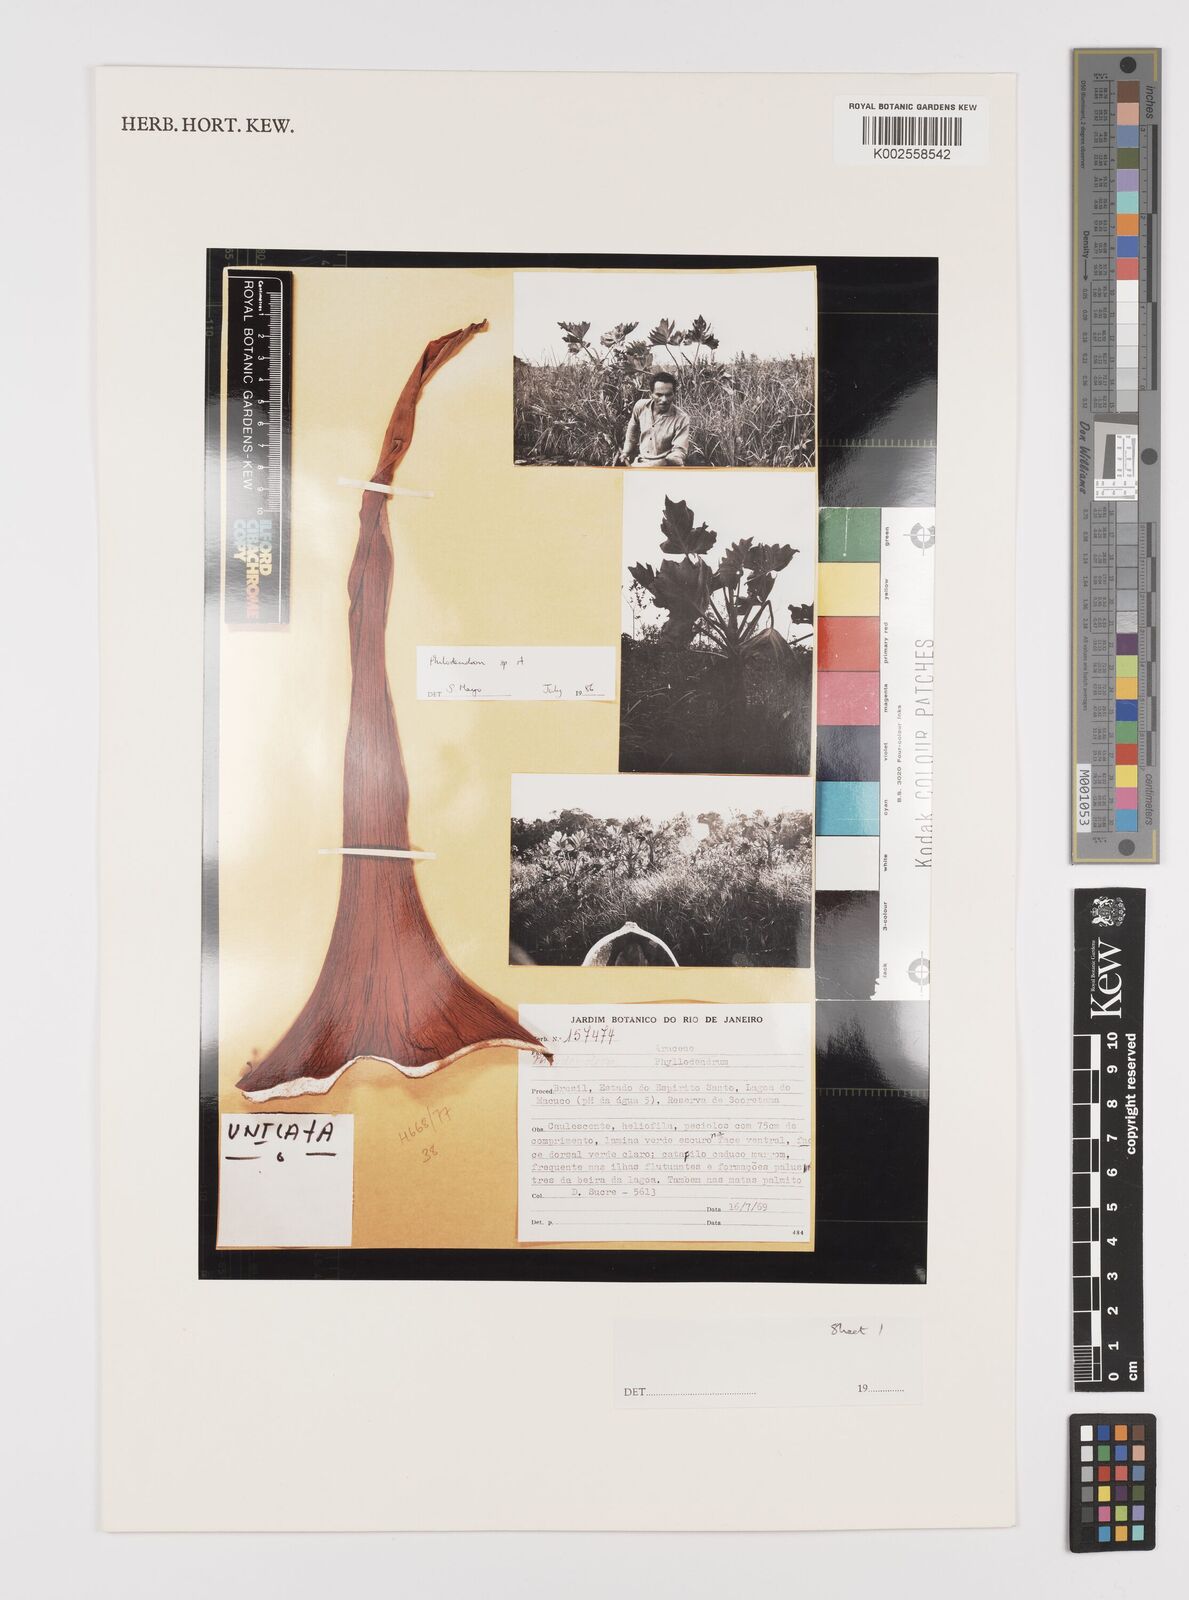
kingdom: Plantae
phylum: Tracheophyta
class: Liliopsida
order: Alismatales
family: Araceae
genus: Philodendron
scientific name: Philodendron
